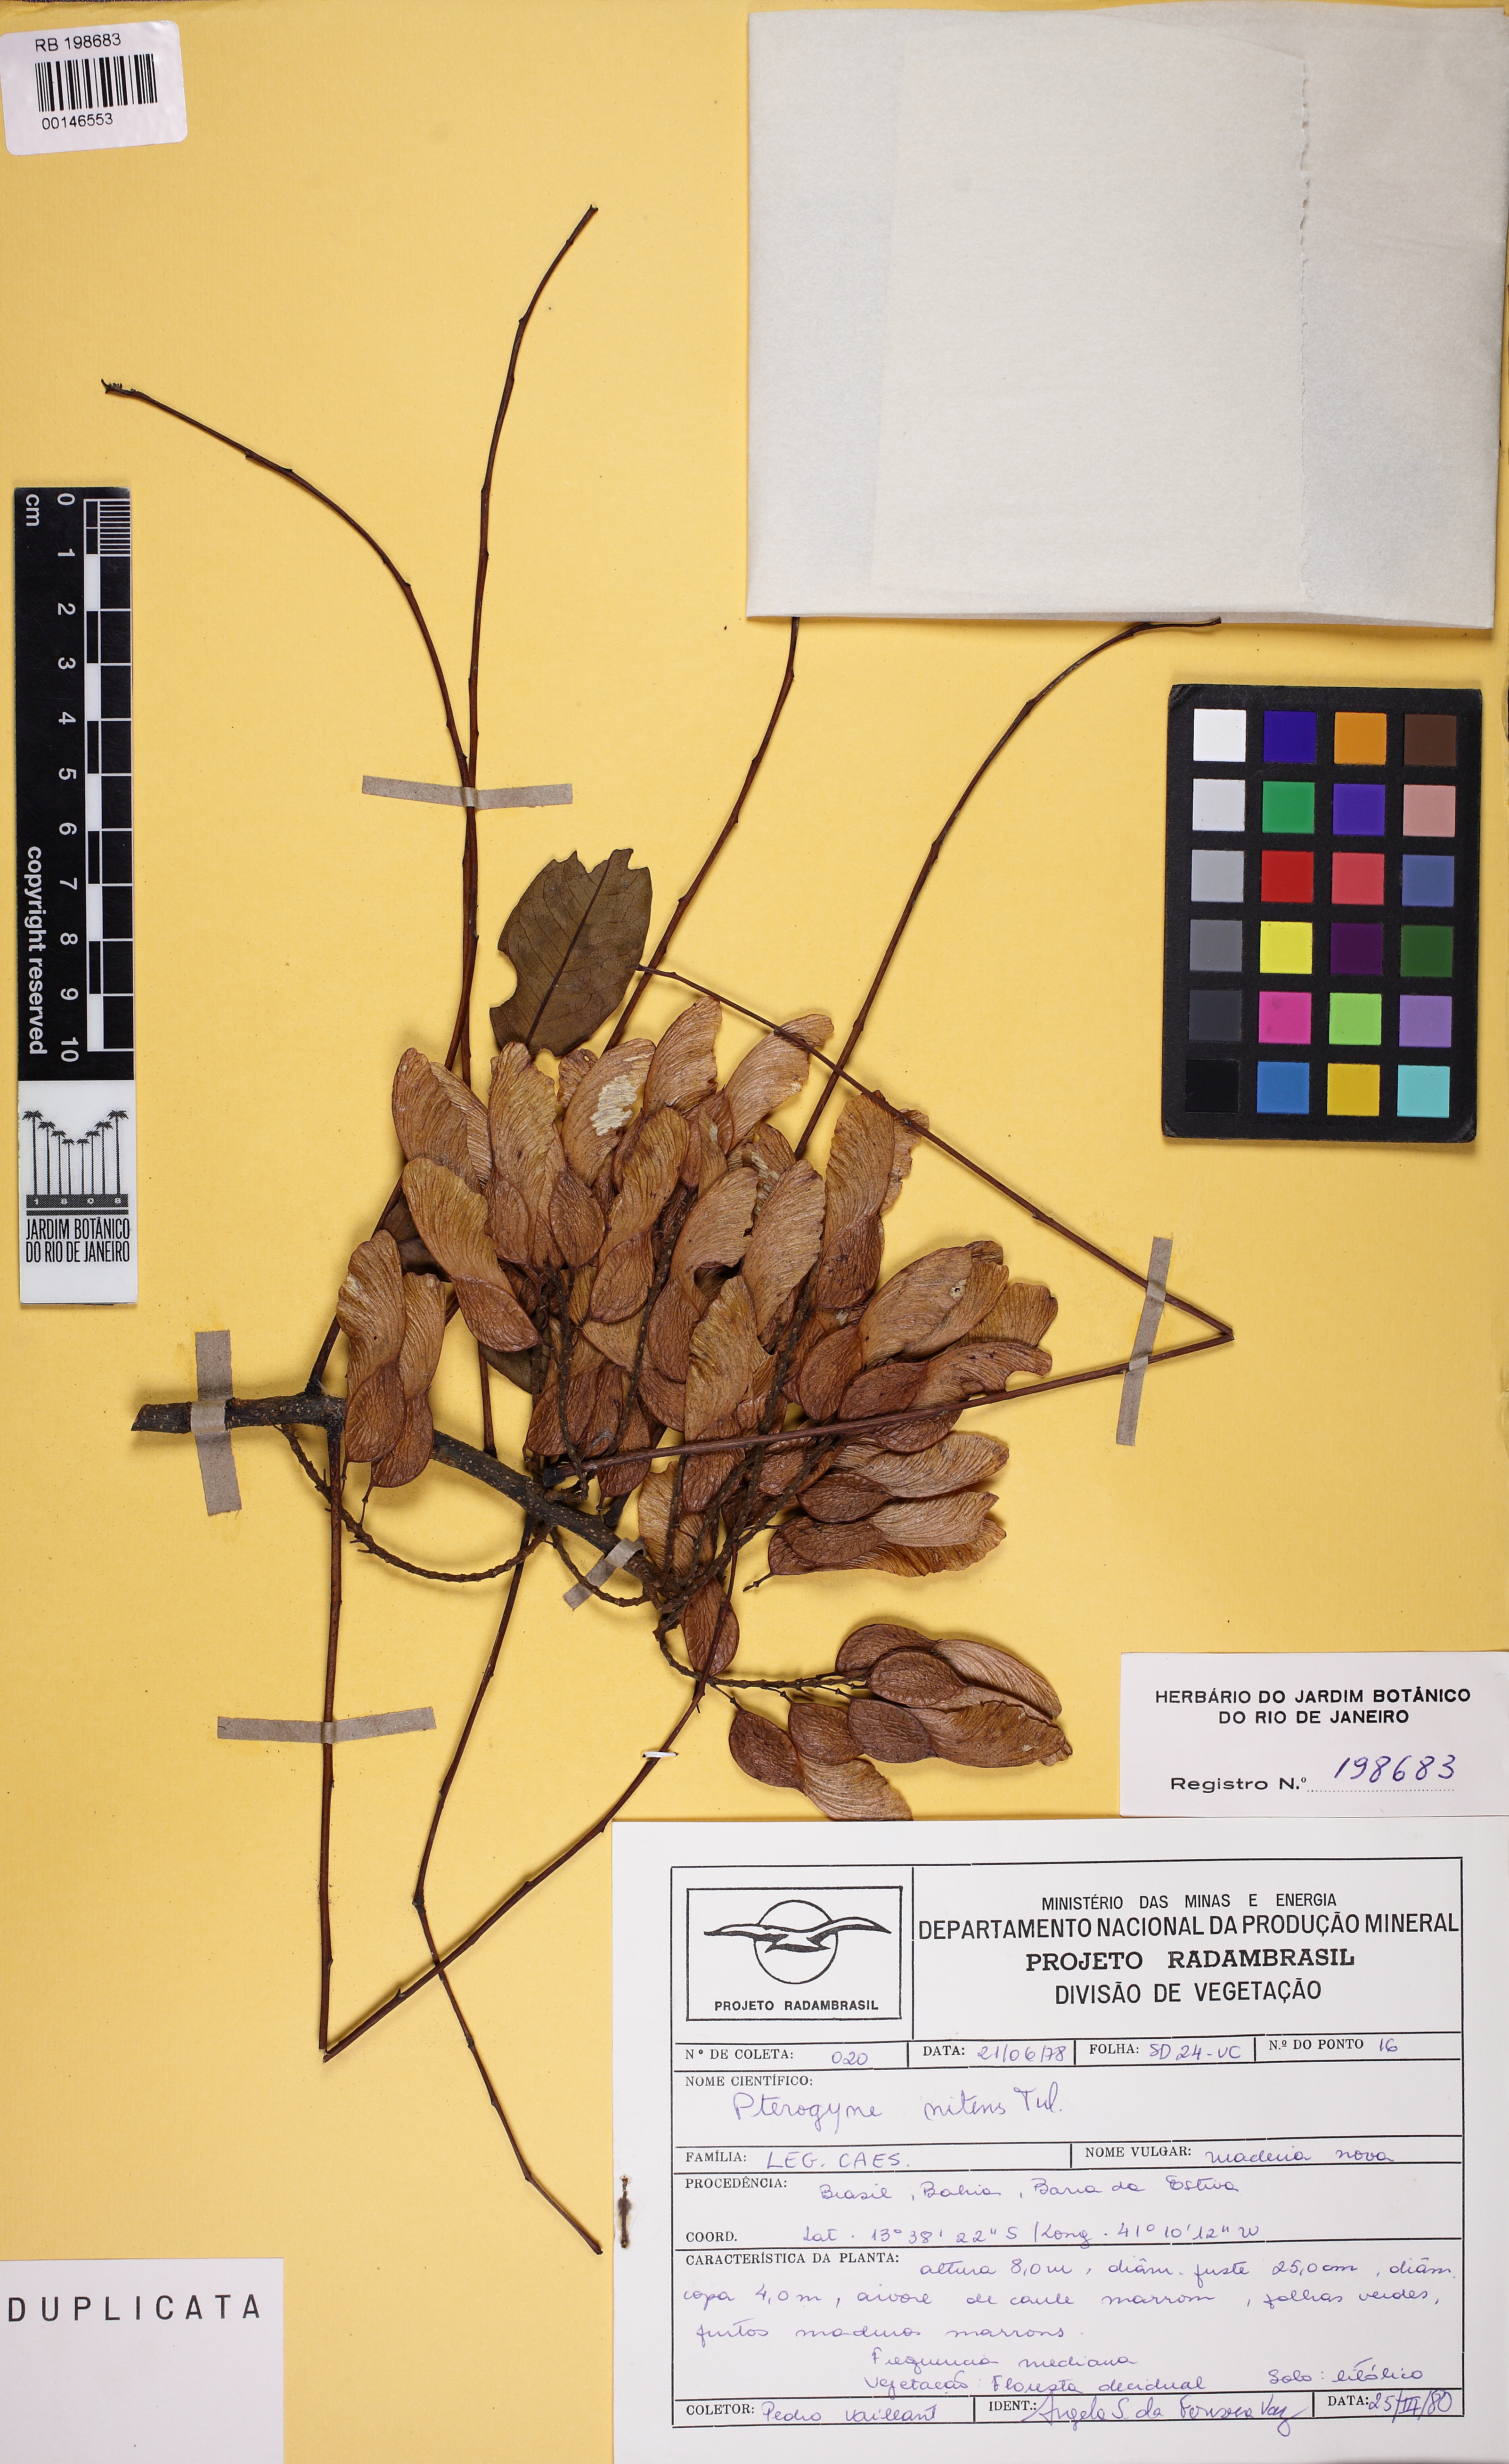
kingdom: Plantae
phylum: Tracheophyta
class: Magnoliopsida
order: Fabales
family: Fabaceae
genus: Pterogyne
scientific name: Pterogyne nitens
